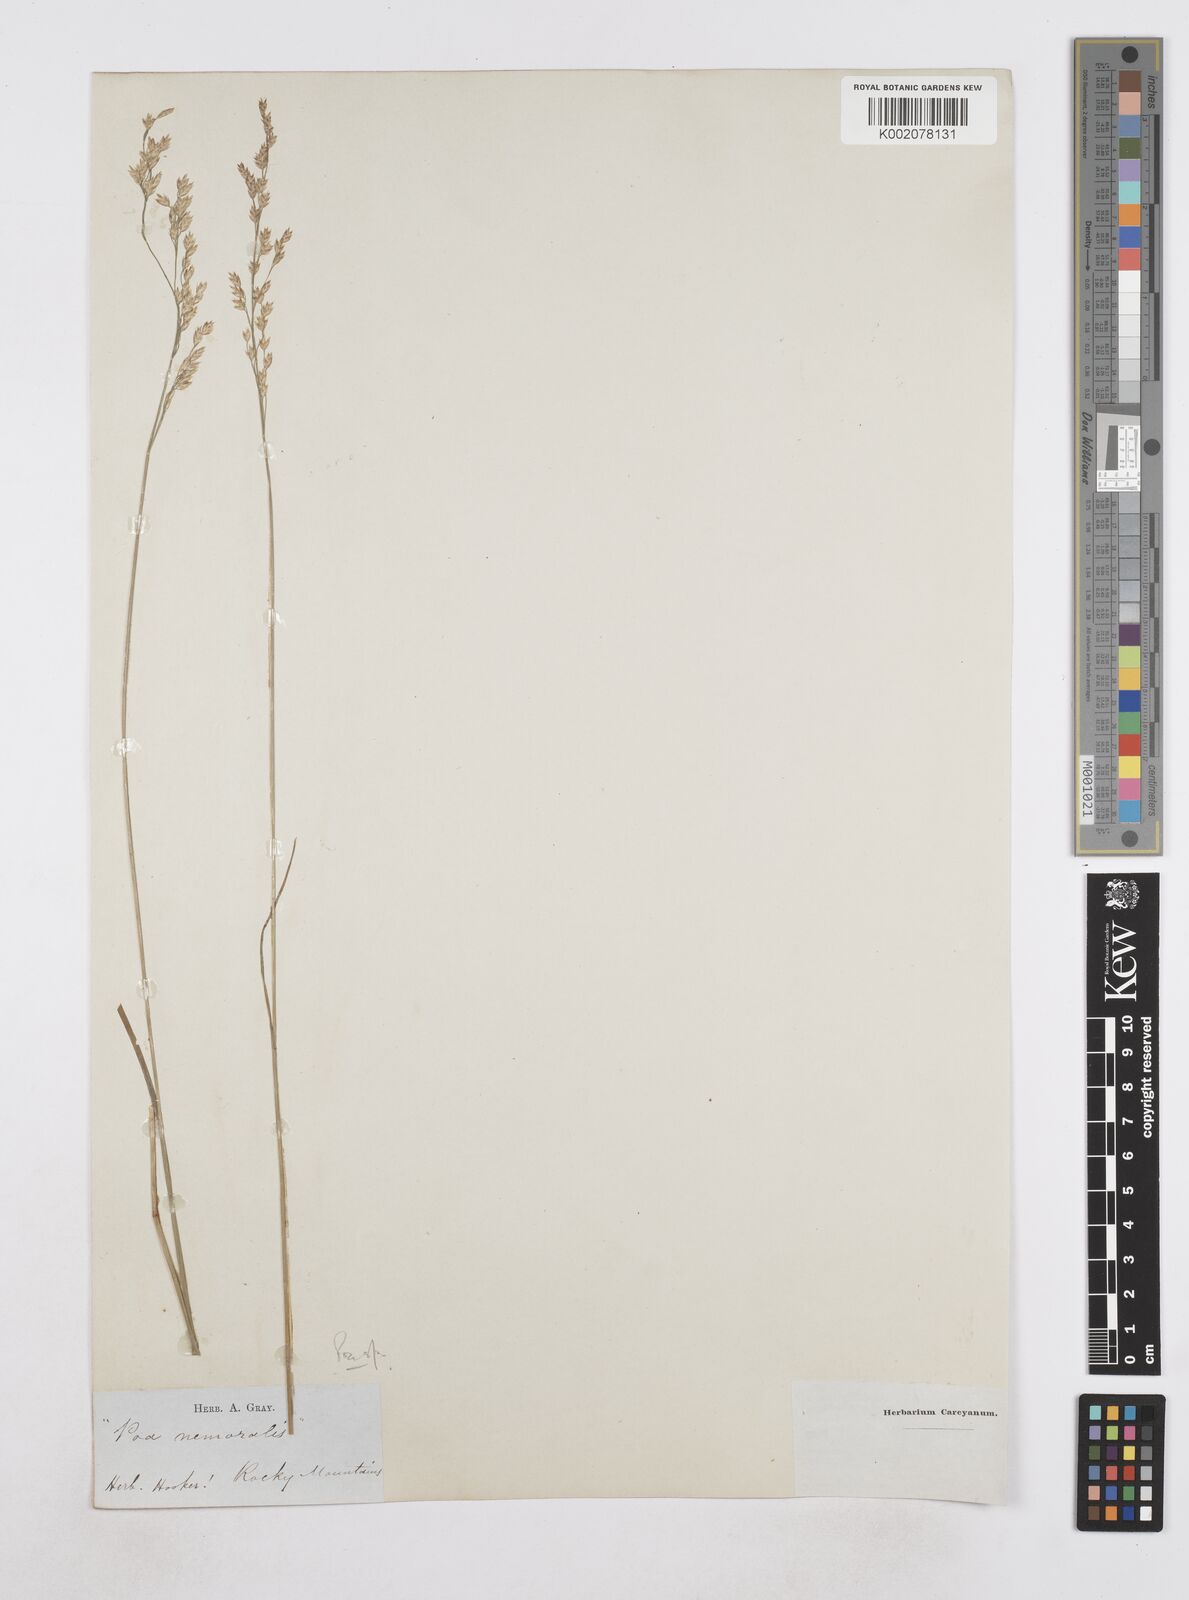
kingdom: Plantae
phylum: Tracheophyta
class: Liliopsida
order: Poales
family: Poaceae
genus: Poa
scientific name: Poa
